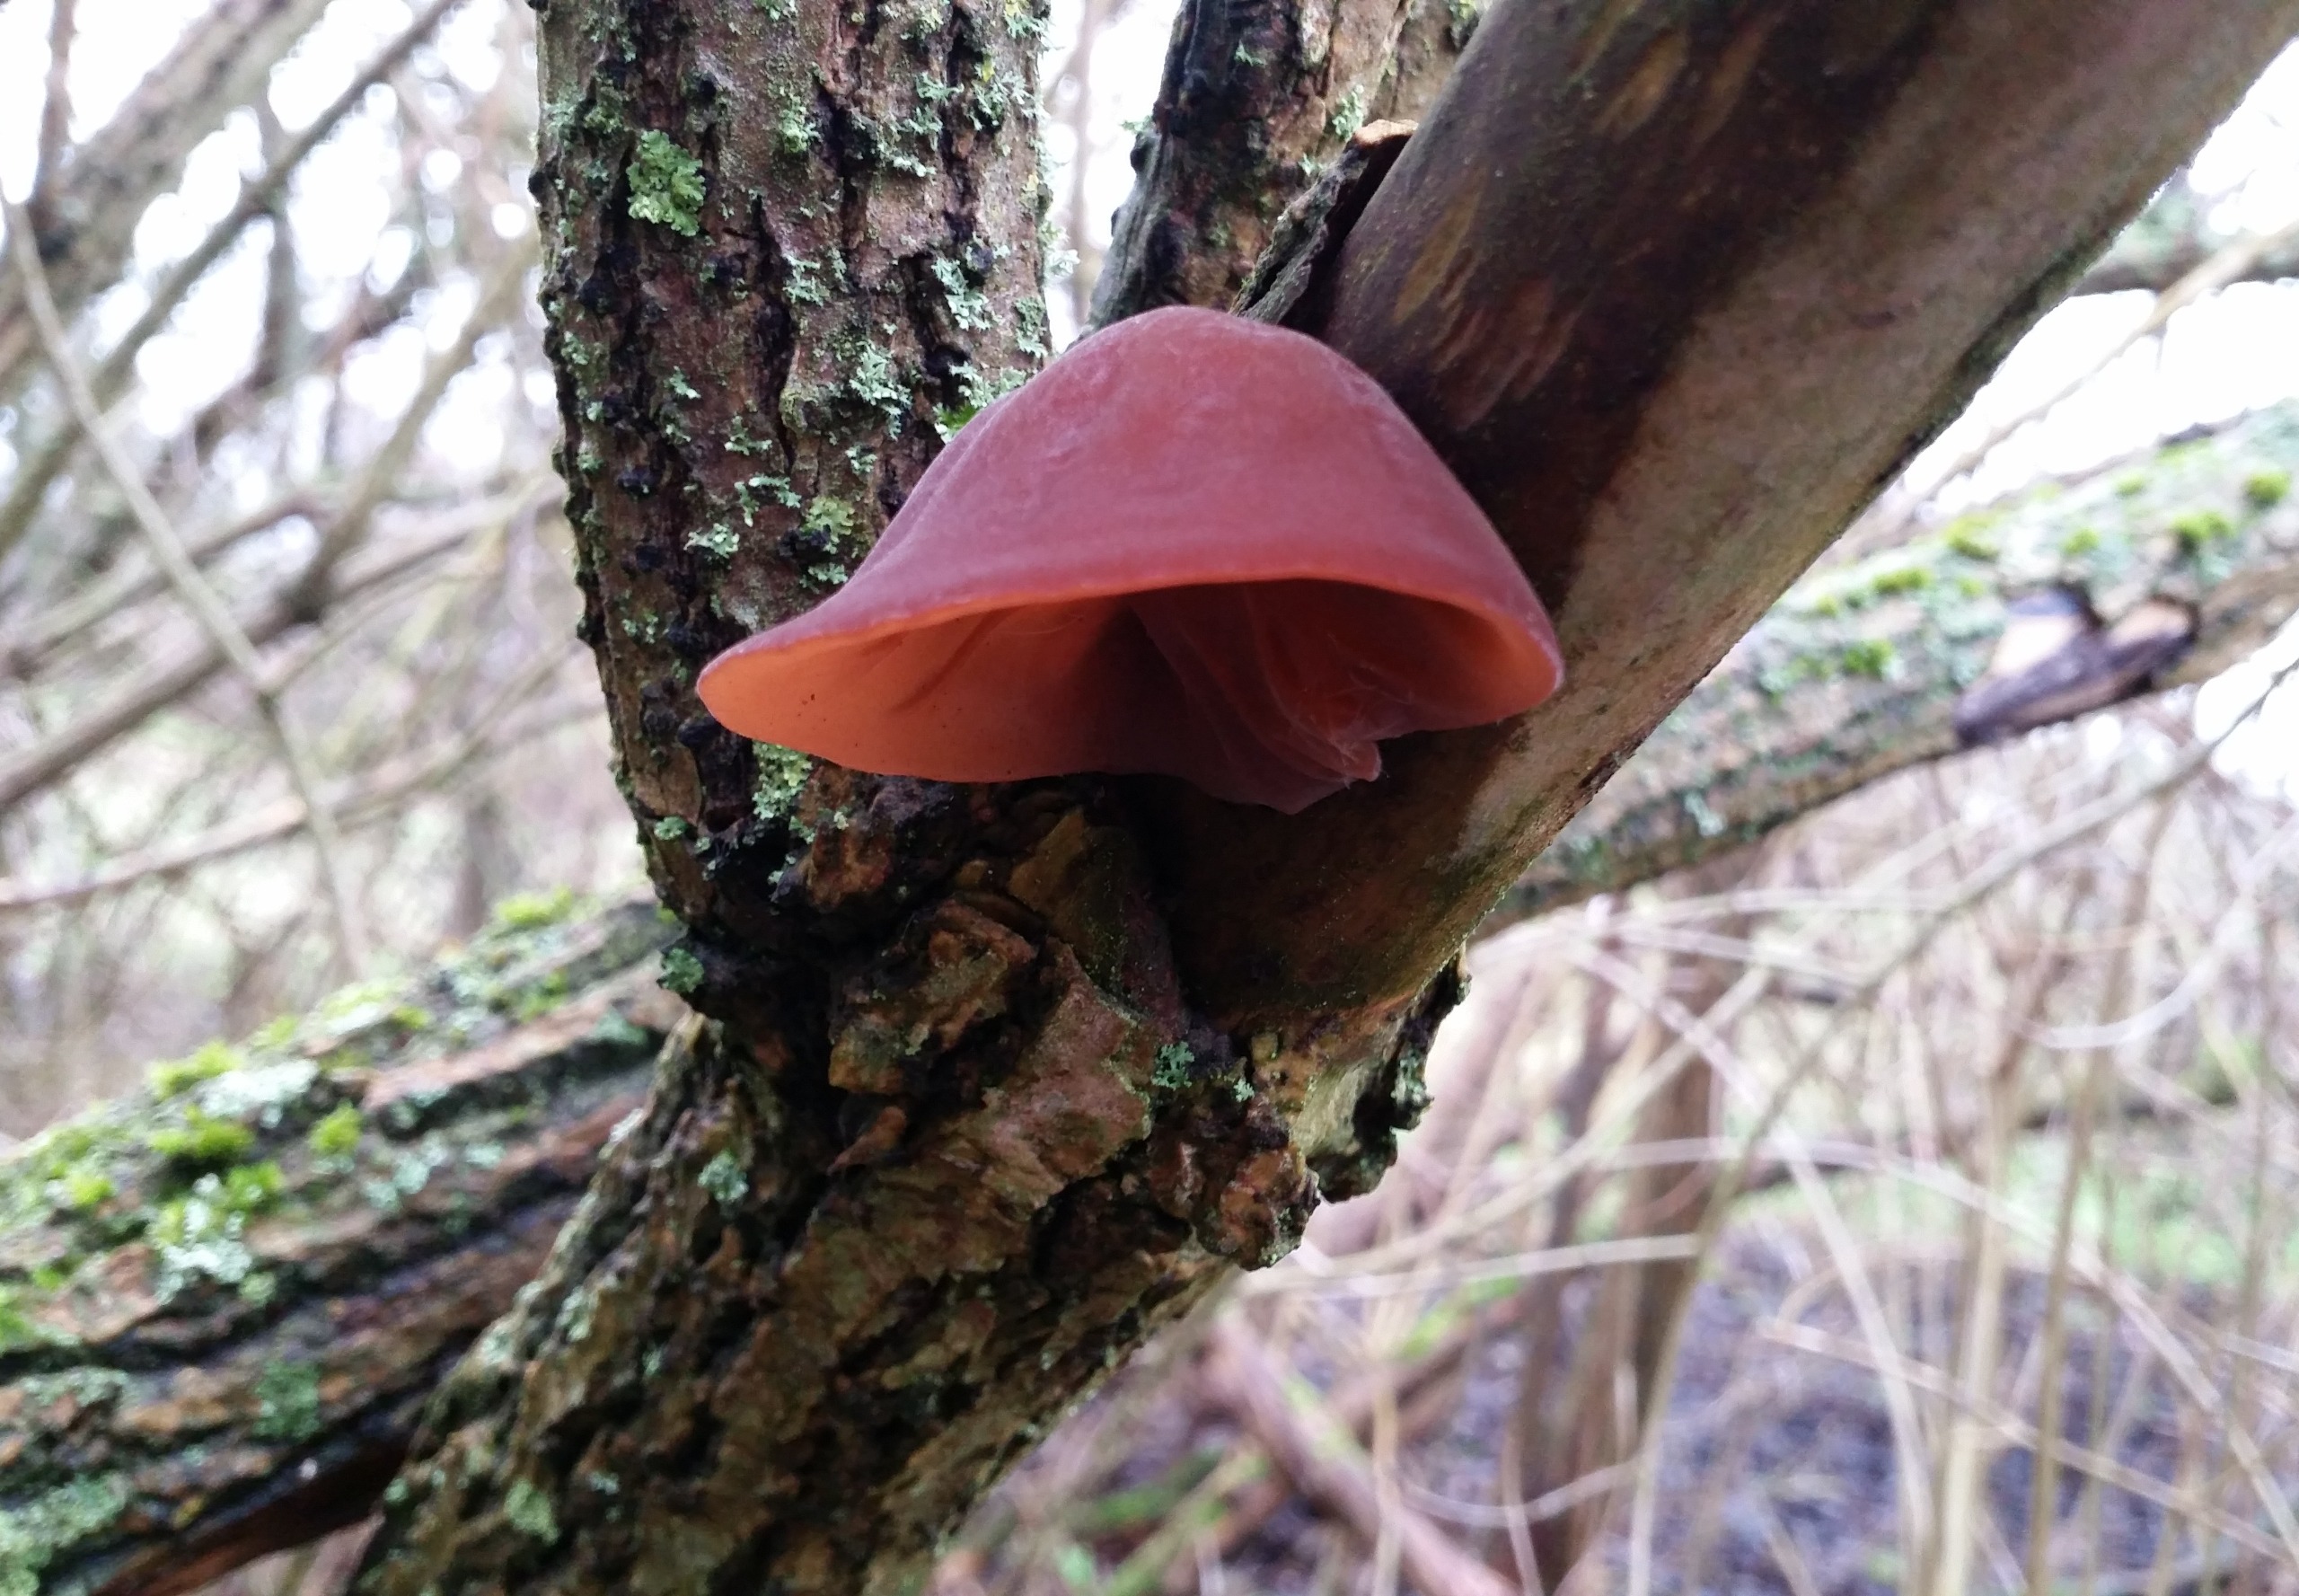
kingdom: Fungi
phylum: Basidiomycota
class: Agaricomycetes
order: Auriculariales
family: Auriculariaceae
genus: Auricularia
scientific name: Auricularia auricula-judae
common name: Almindelig judasøre
